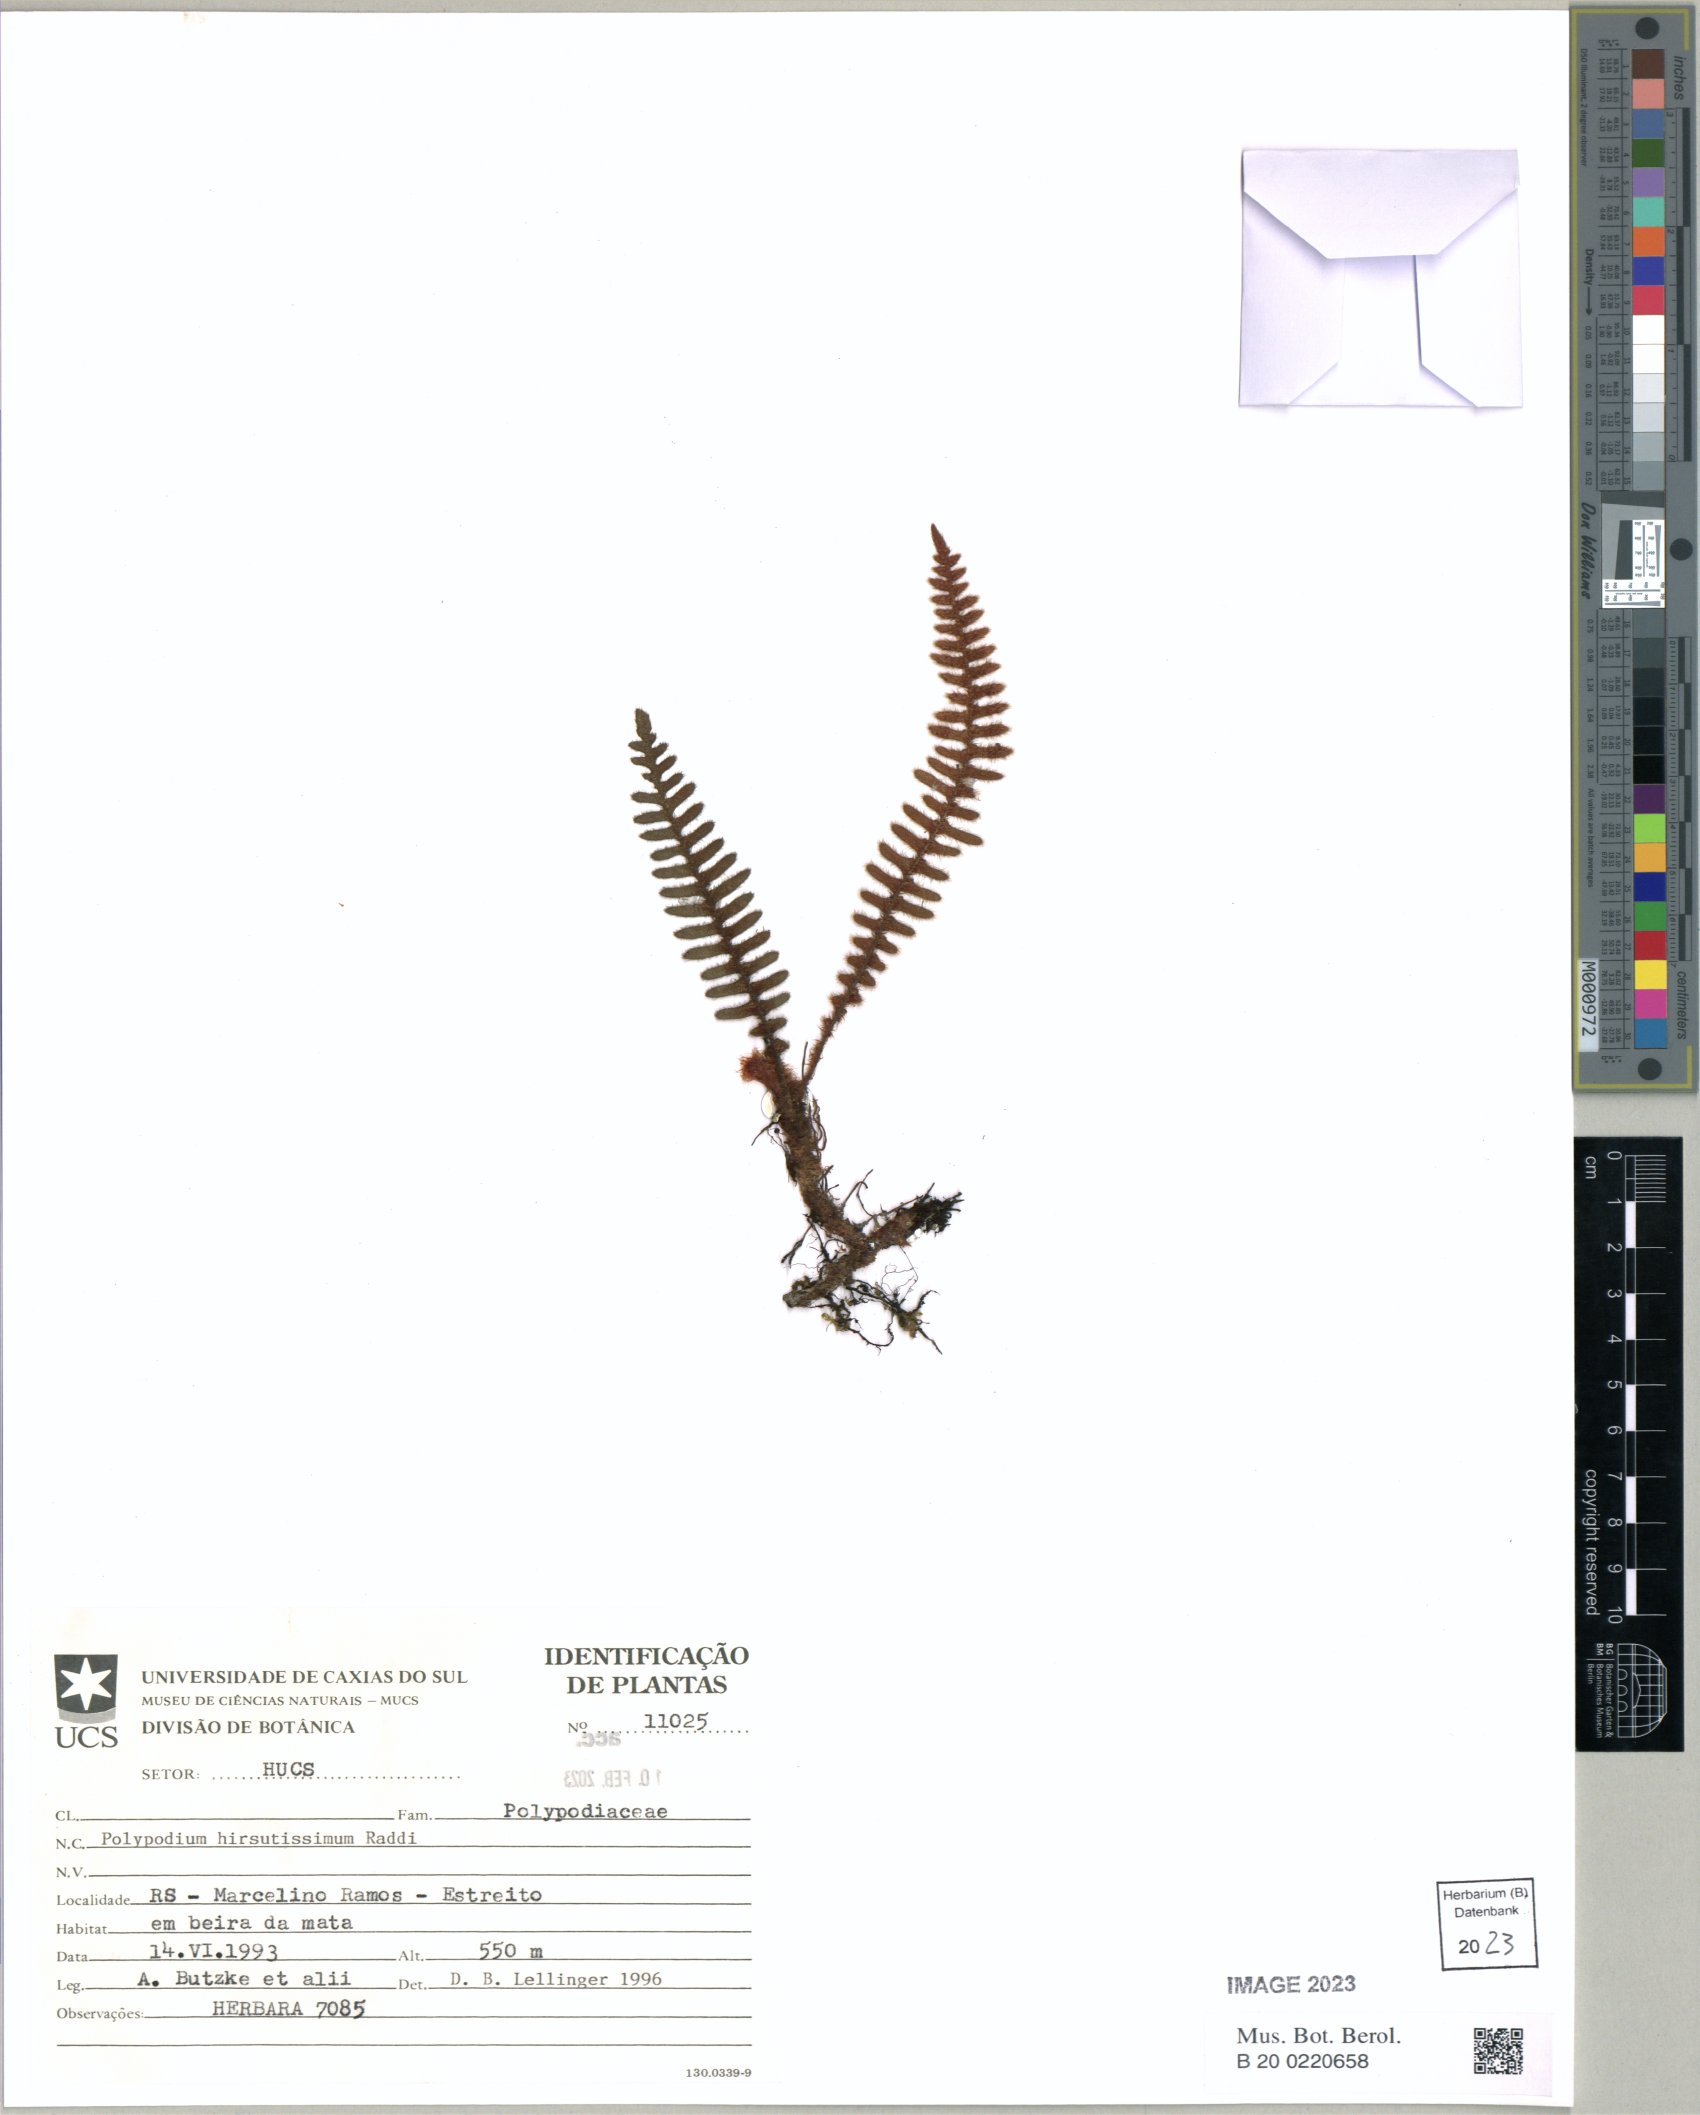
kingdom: Plantae
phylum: Tracheophyta
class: Polypodiopsida
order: Polypodiales
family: Polypodiaceae
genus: Pleopeltis
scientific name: Pleopeltis hirsutissima
